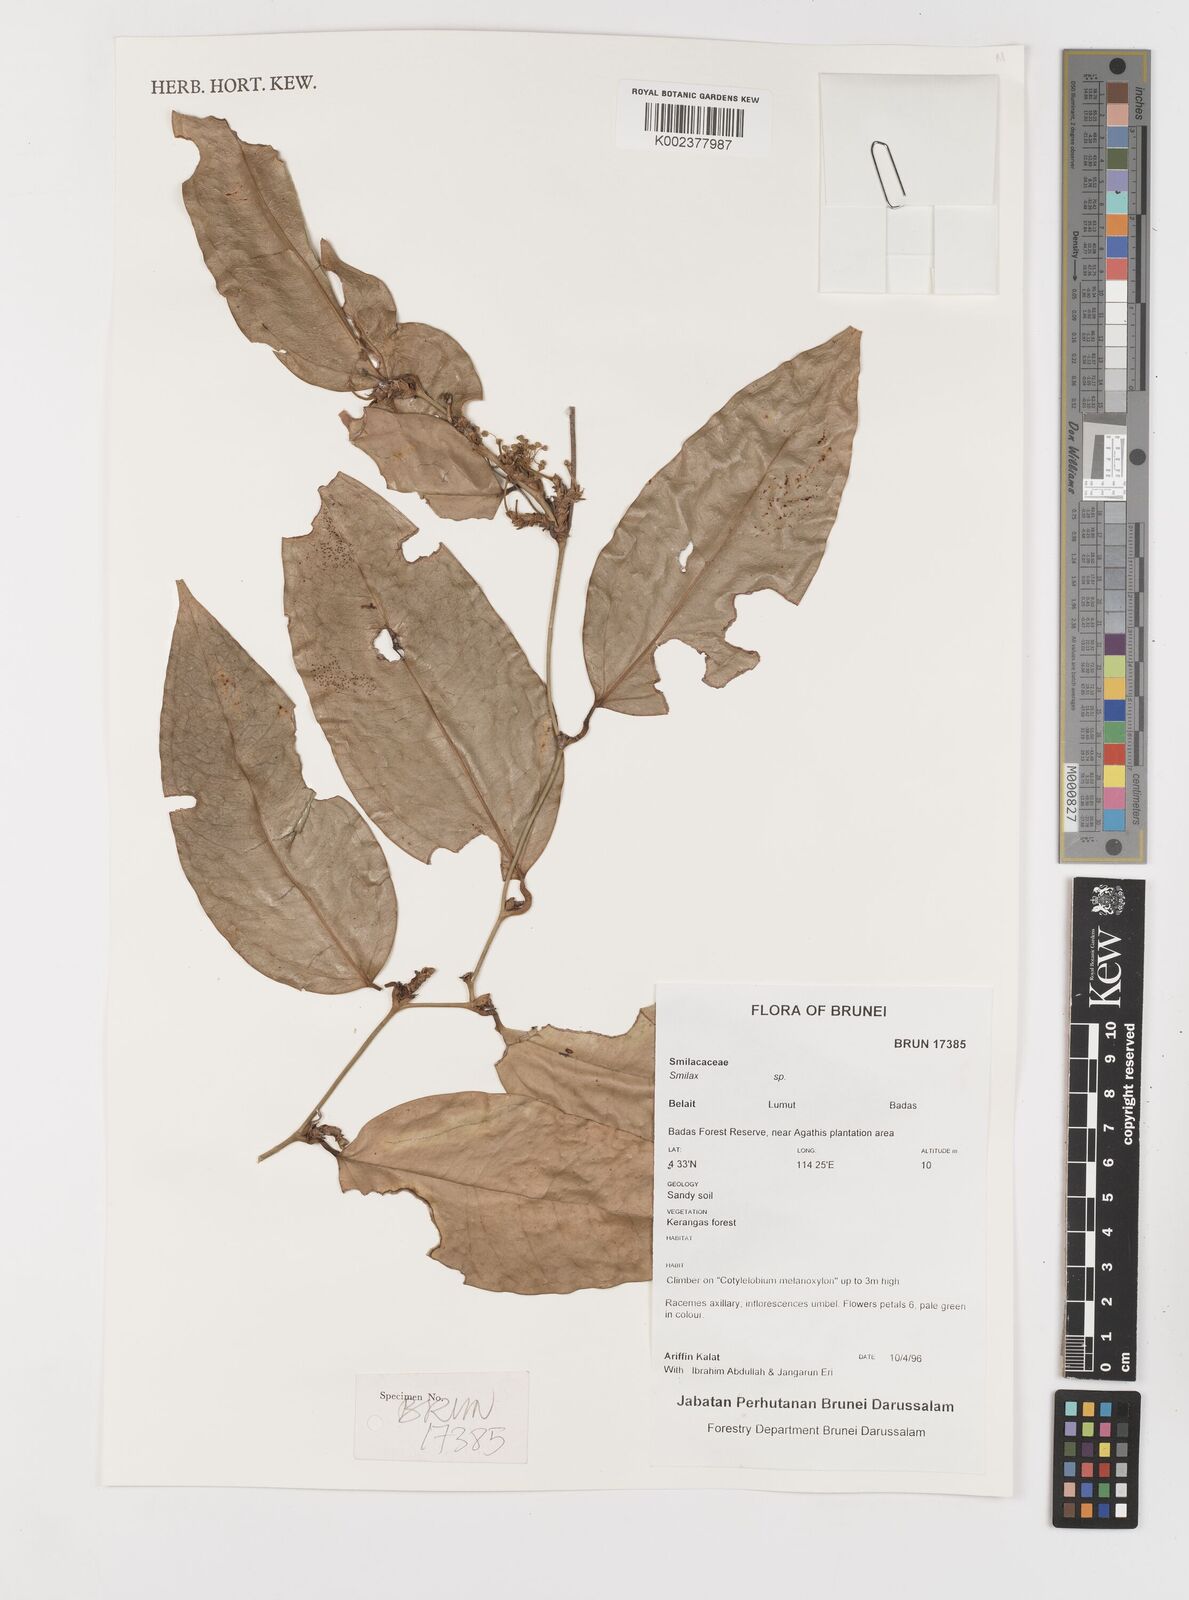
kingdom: Plantae
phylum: Tracheophyta
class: Liliopsida
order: Liliales
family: Smilacaceae
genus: Smilax
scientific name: Smilax
